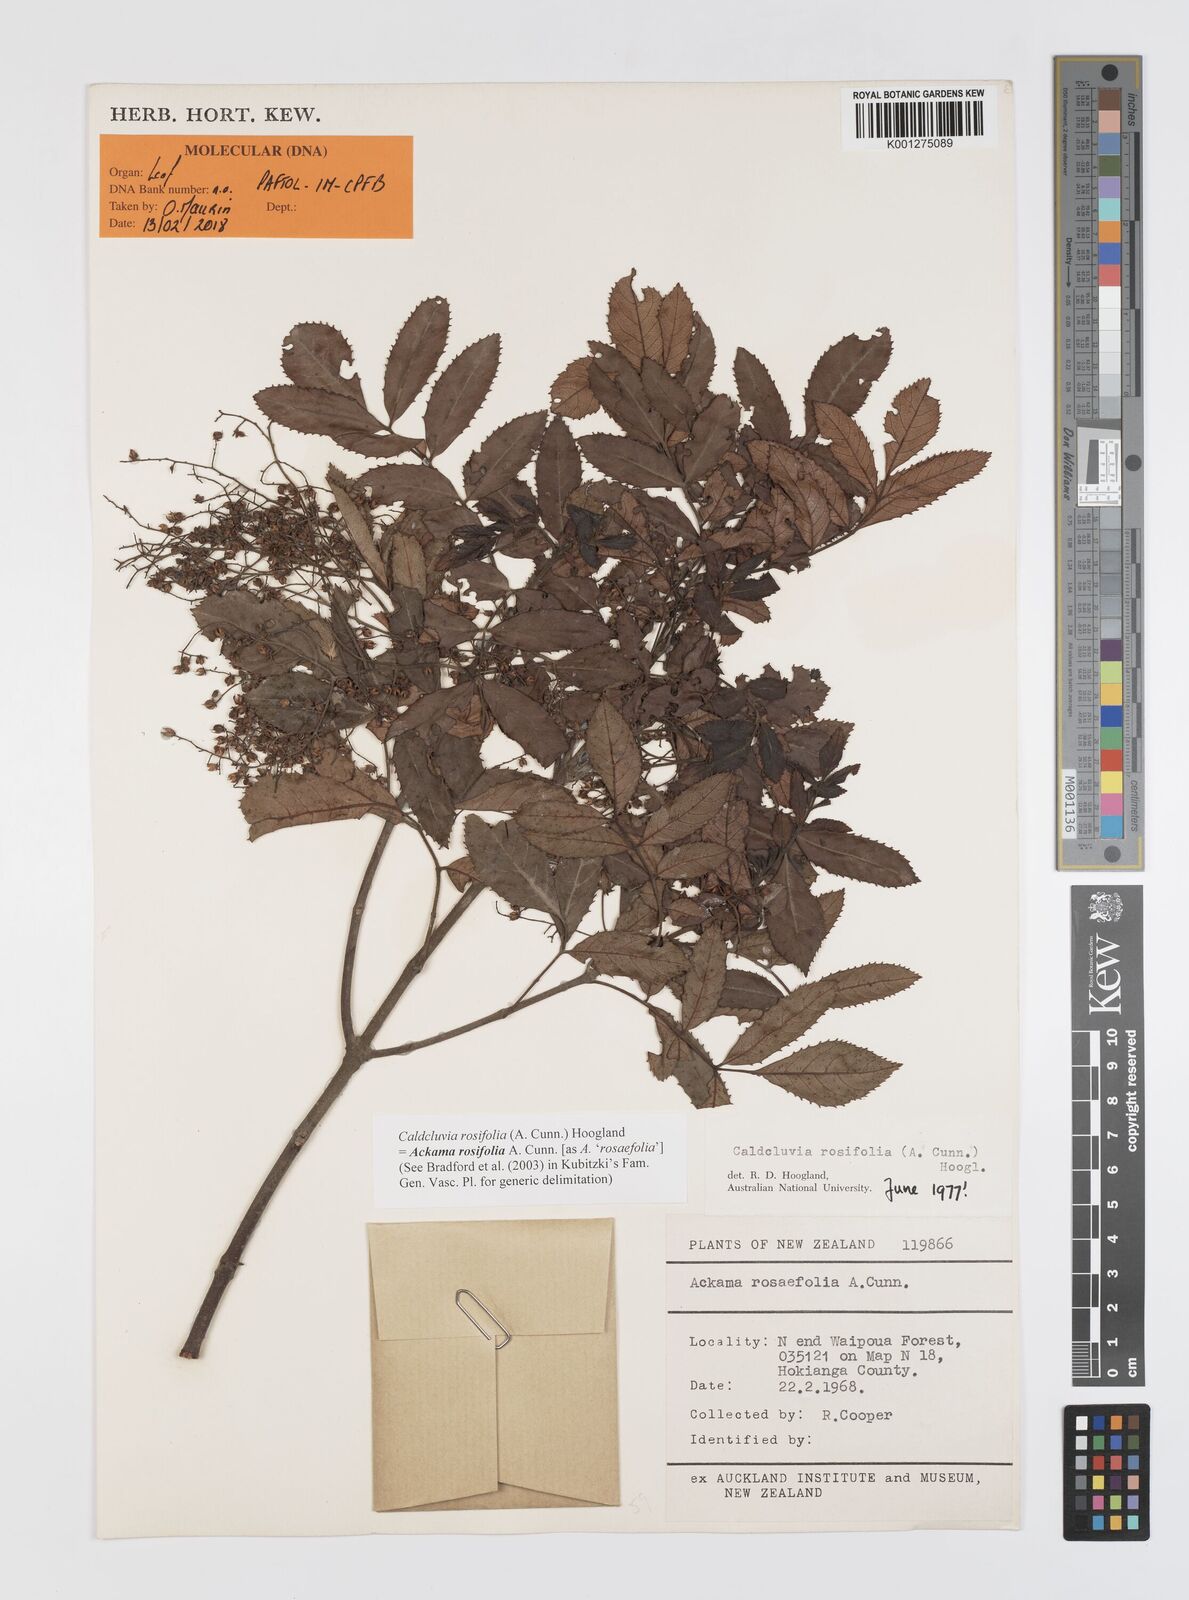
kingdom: Plantae
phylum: Tracheophyta
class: Magnoliopsida
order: Oxalidales
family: Cunoniaceae
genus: Ackama
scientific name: Ackama rosifolia
